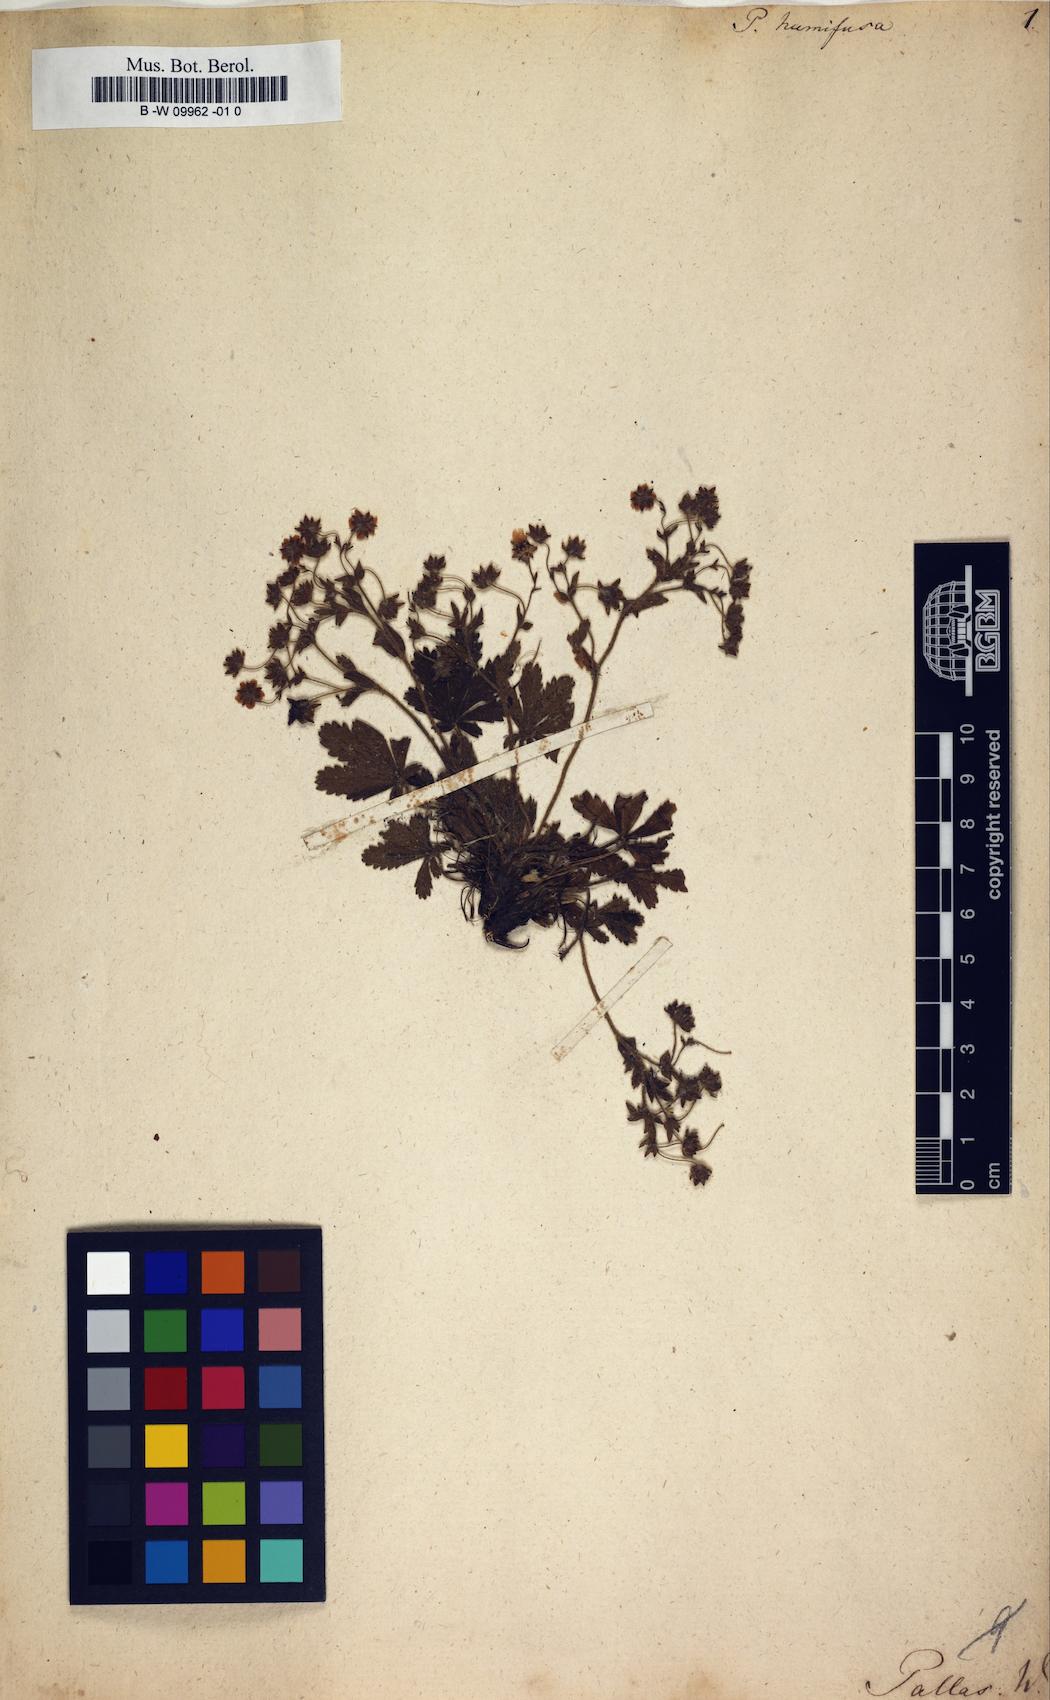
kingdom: Plantae
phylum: Tracheophyta
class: Magnoliopsida
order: Rosales
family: Rosaceae
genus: Potentilla
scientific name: Potentilla humifusa
